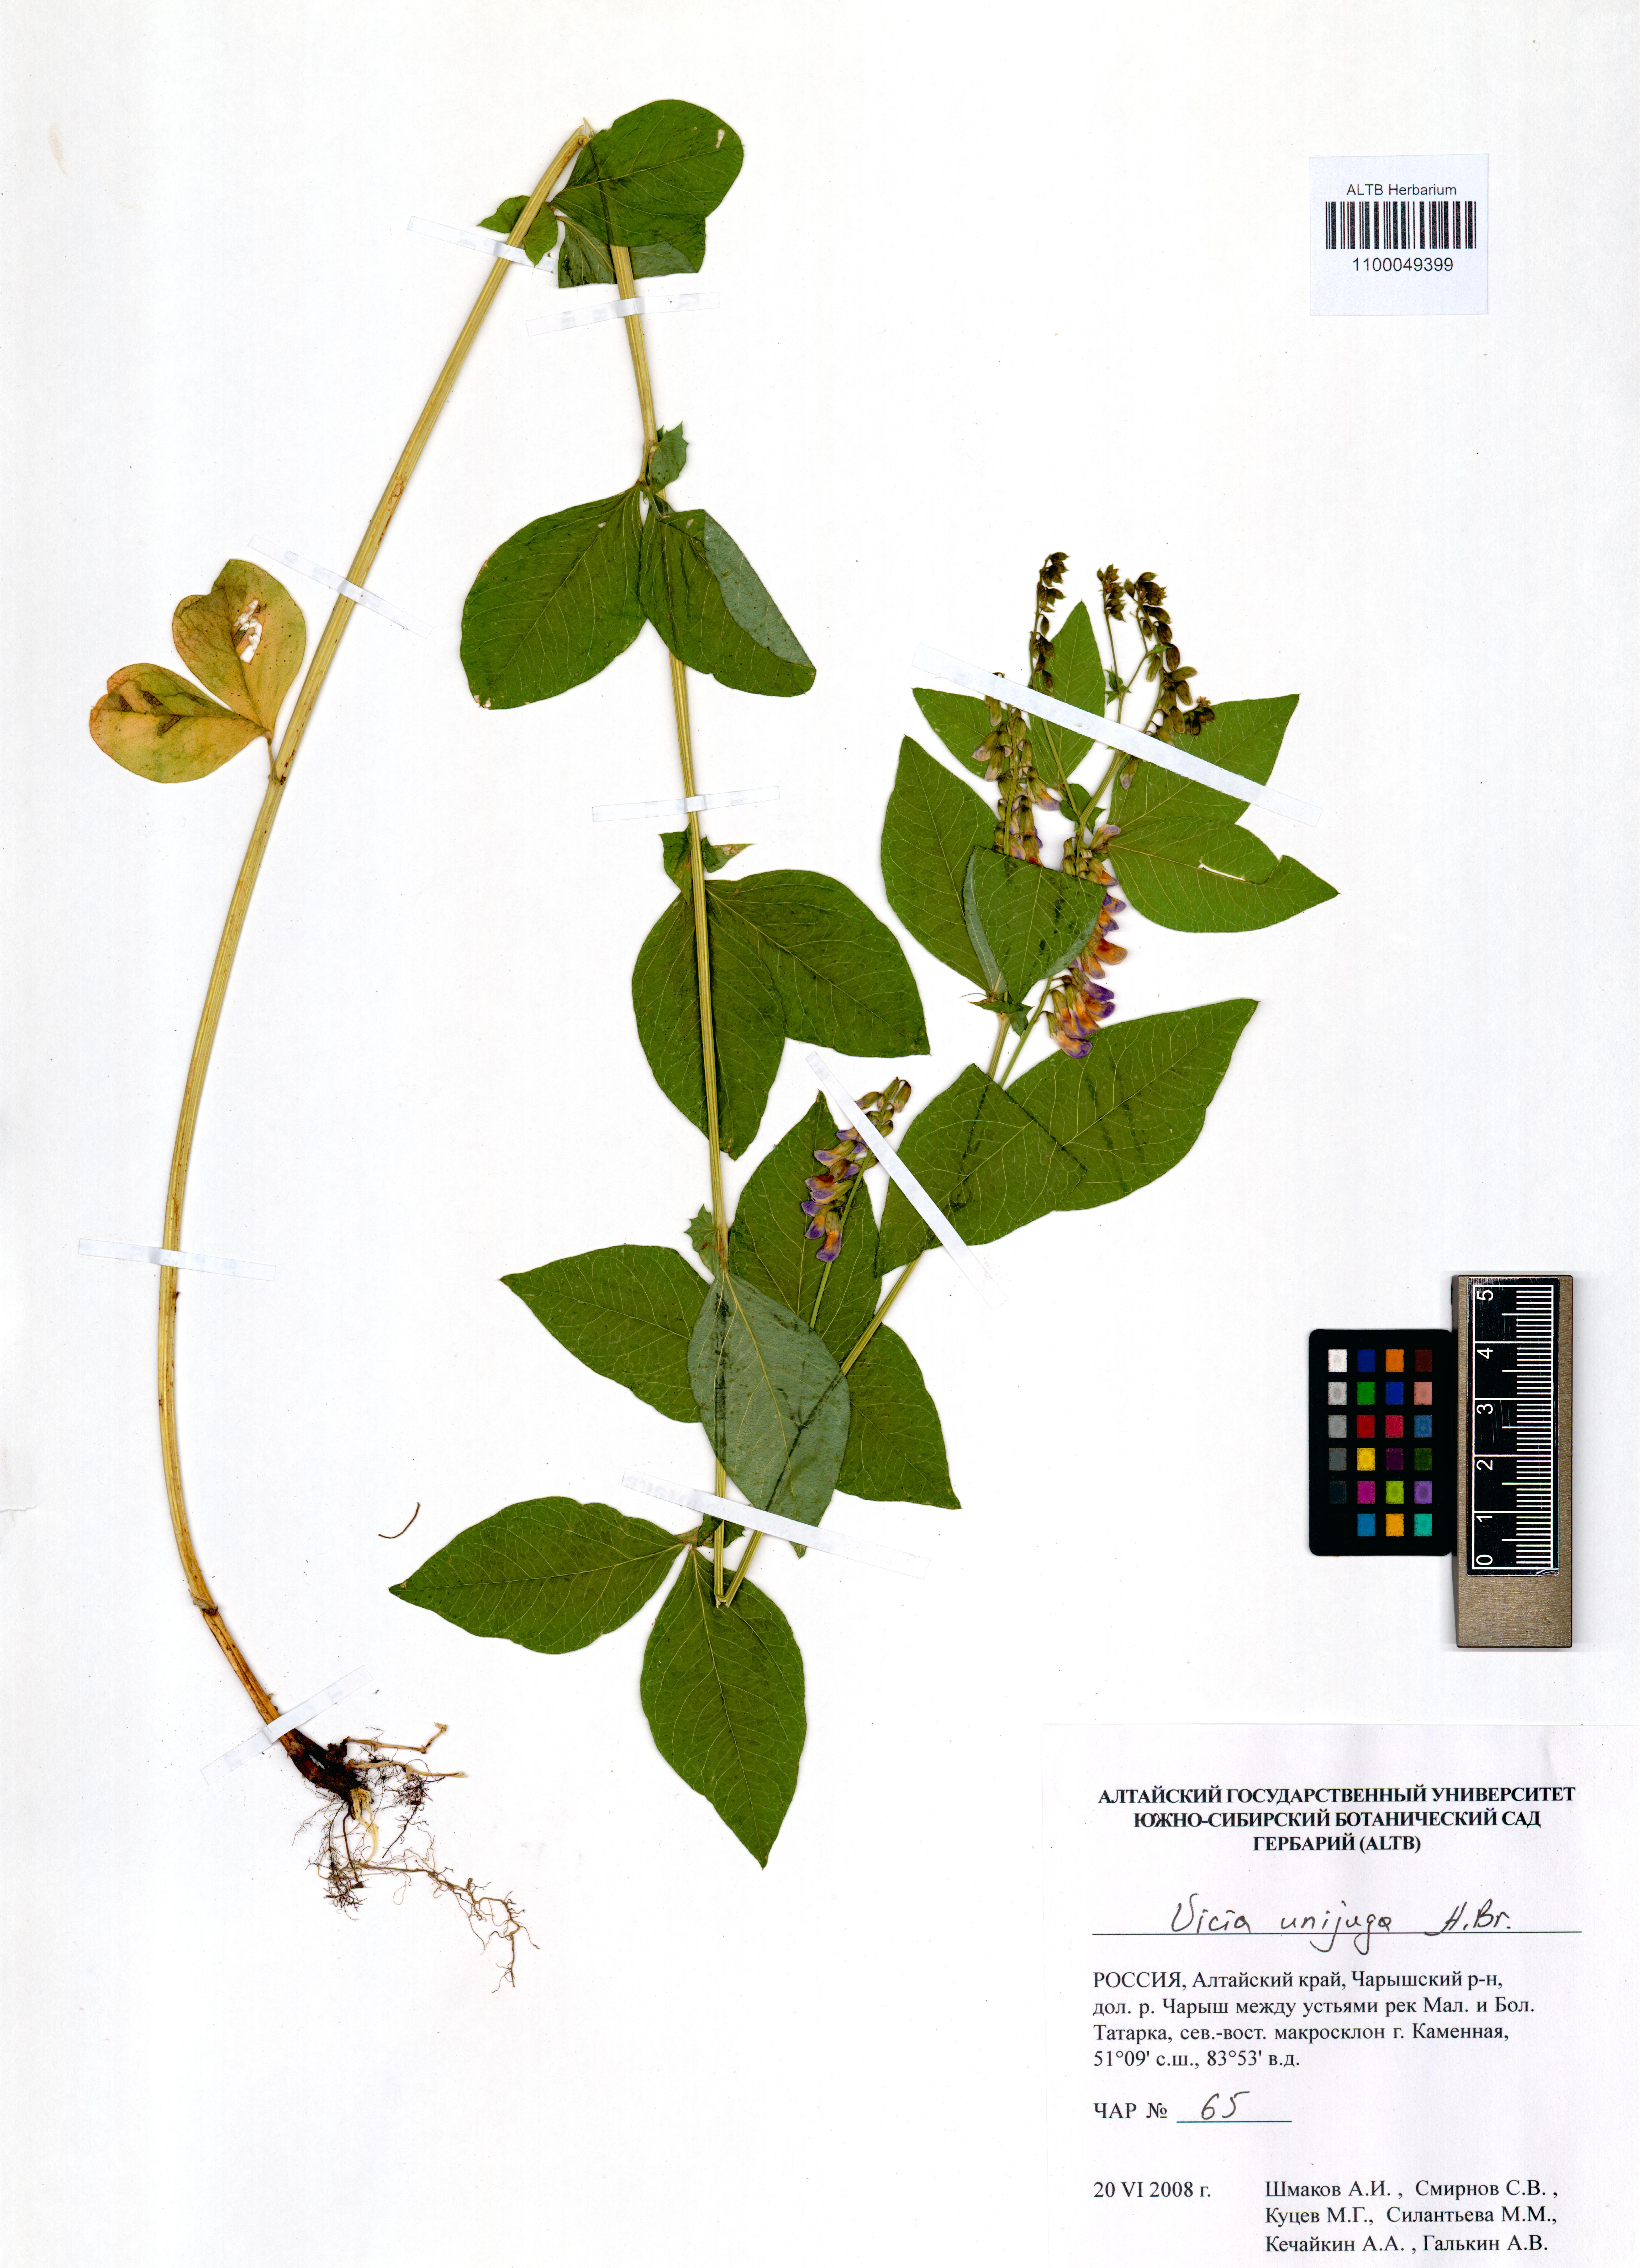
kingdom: Plantae
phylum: Tracheophyta
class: Magnoliopsida
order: Fabales
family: Fabaceae
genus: Vicia
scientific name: Vicia unijuga
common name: Two-leaf vetch
